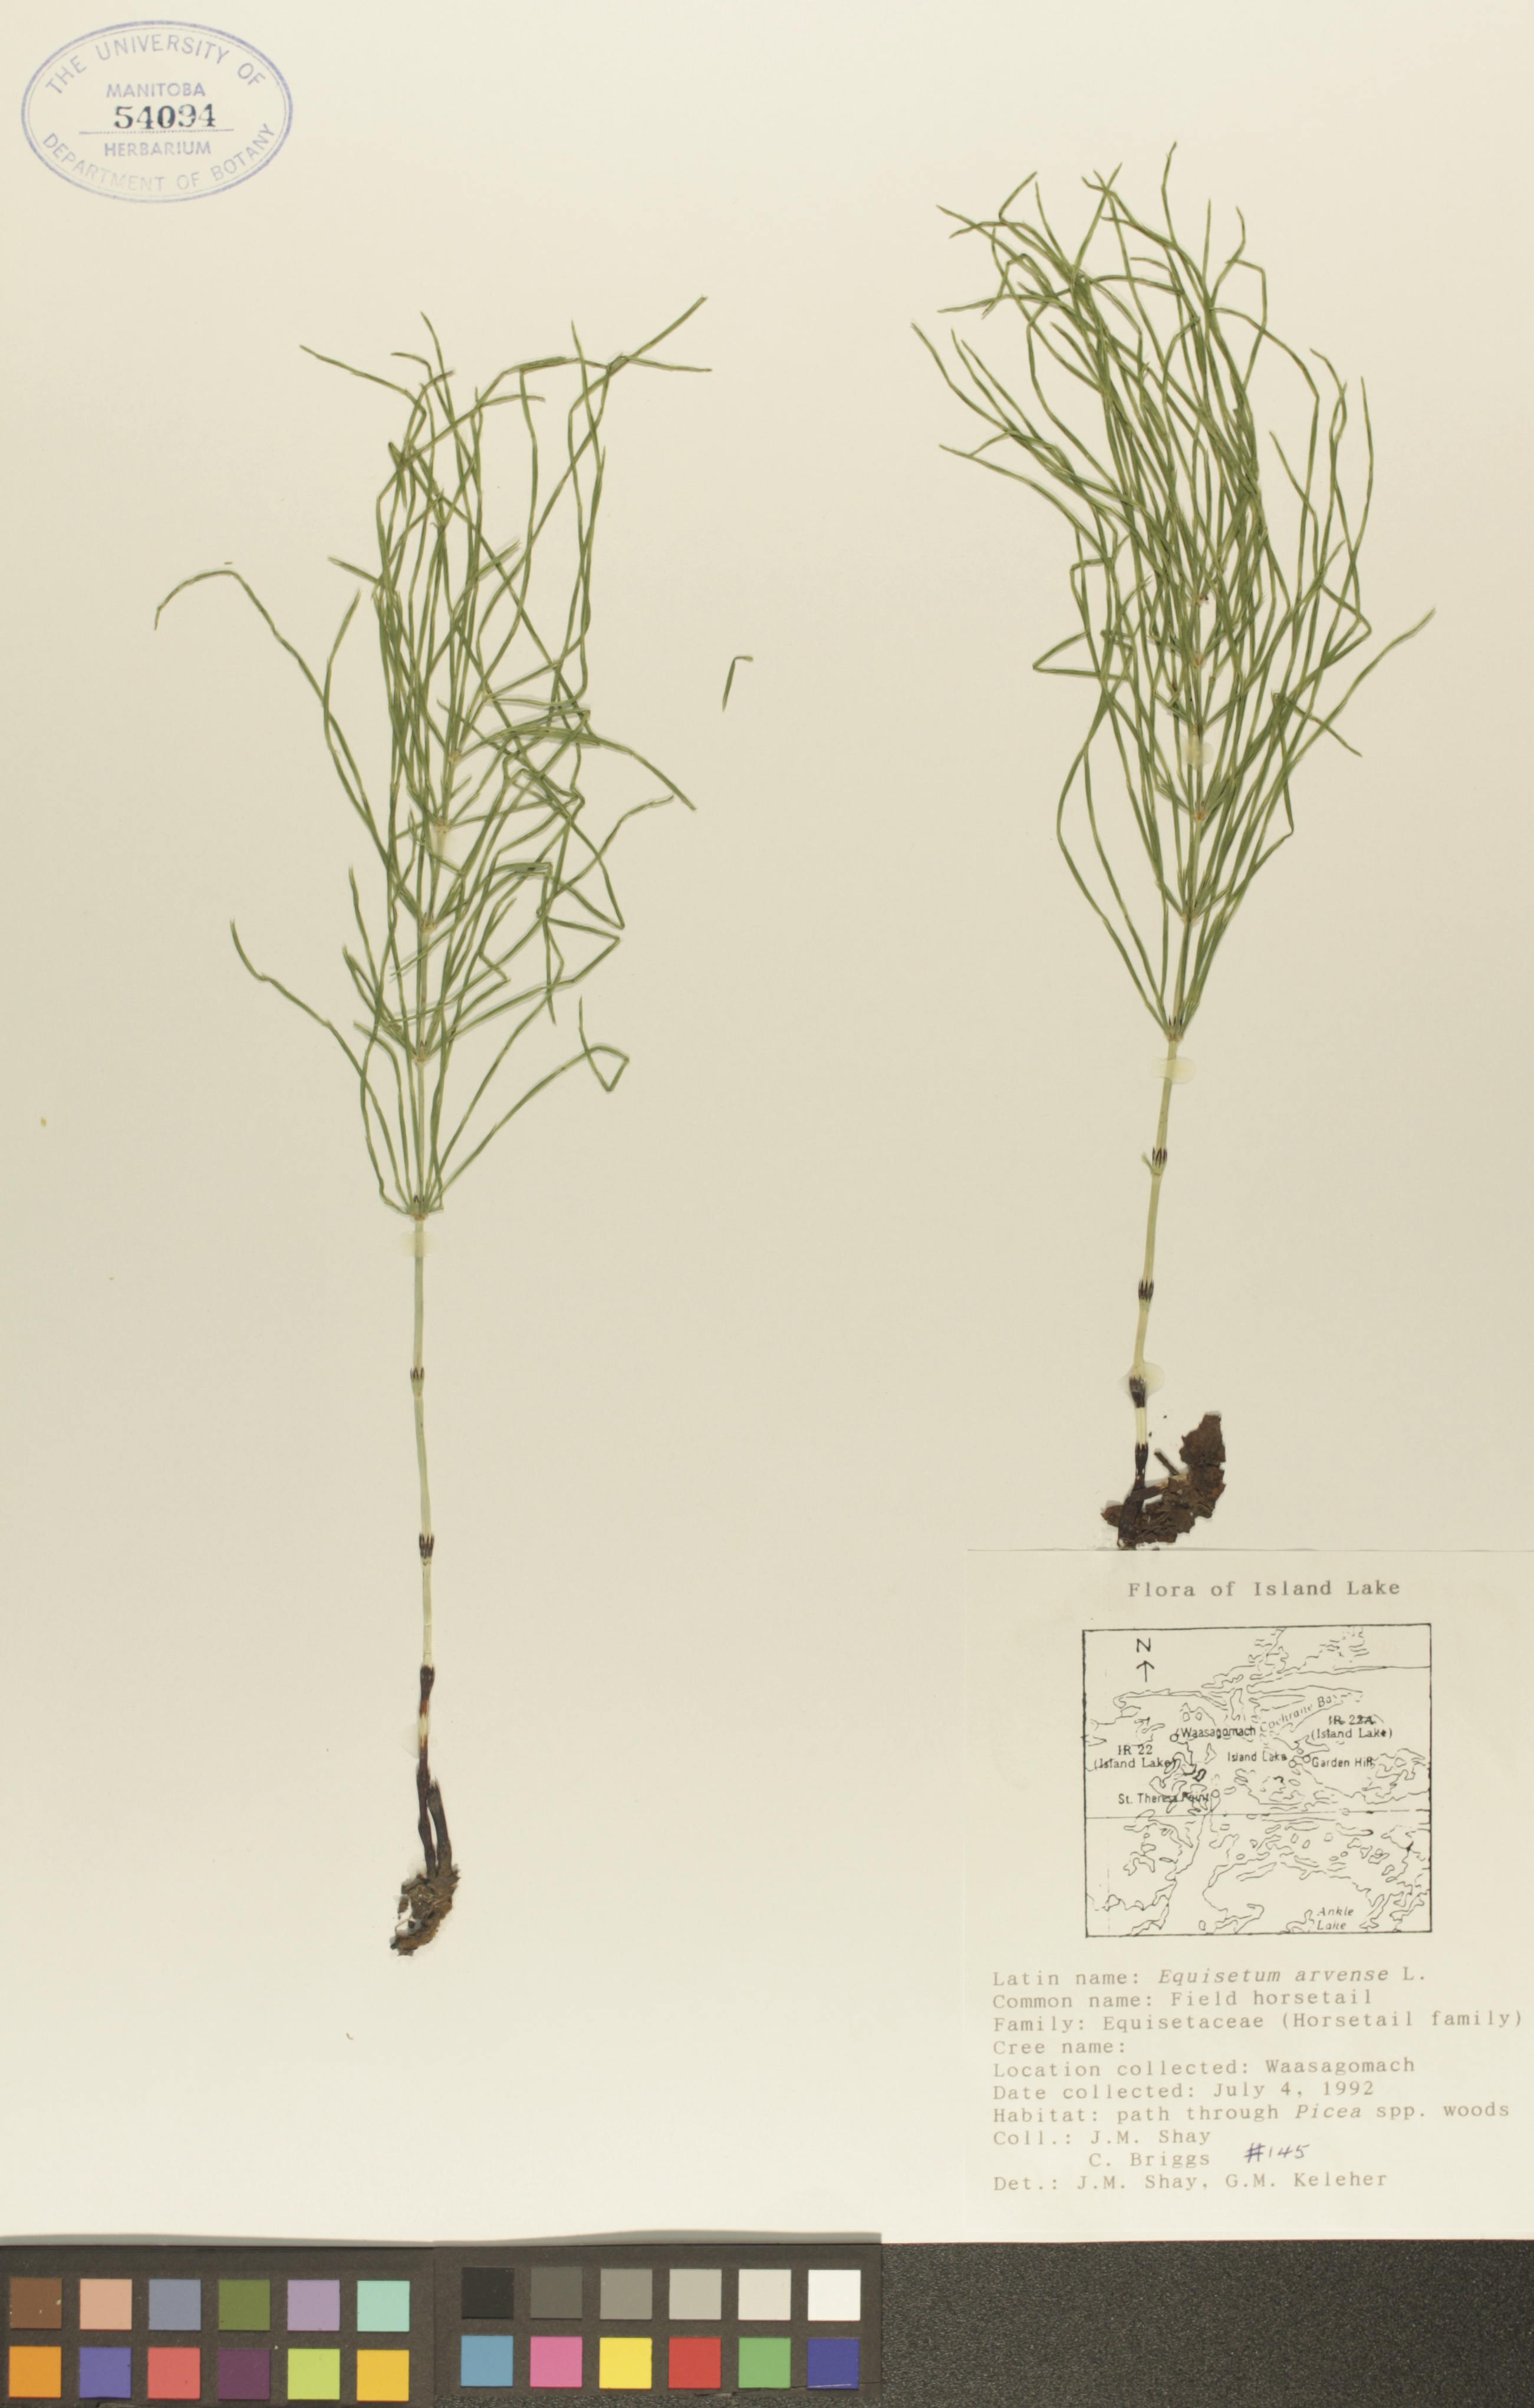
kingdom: Plantae
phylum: Tracheophyta
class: Polypodiopsida
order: Equisetales
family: Equisetaceae
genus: Equisetum
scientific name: Equisetum arvense
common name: Field horsetail
